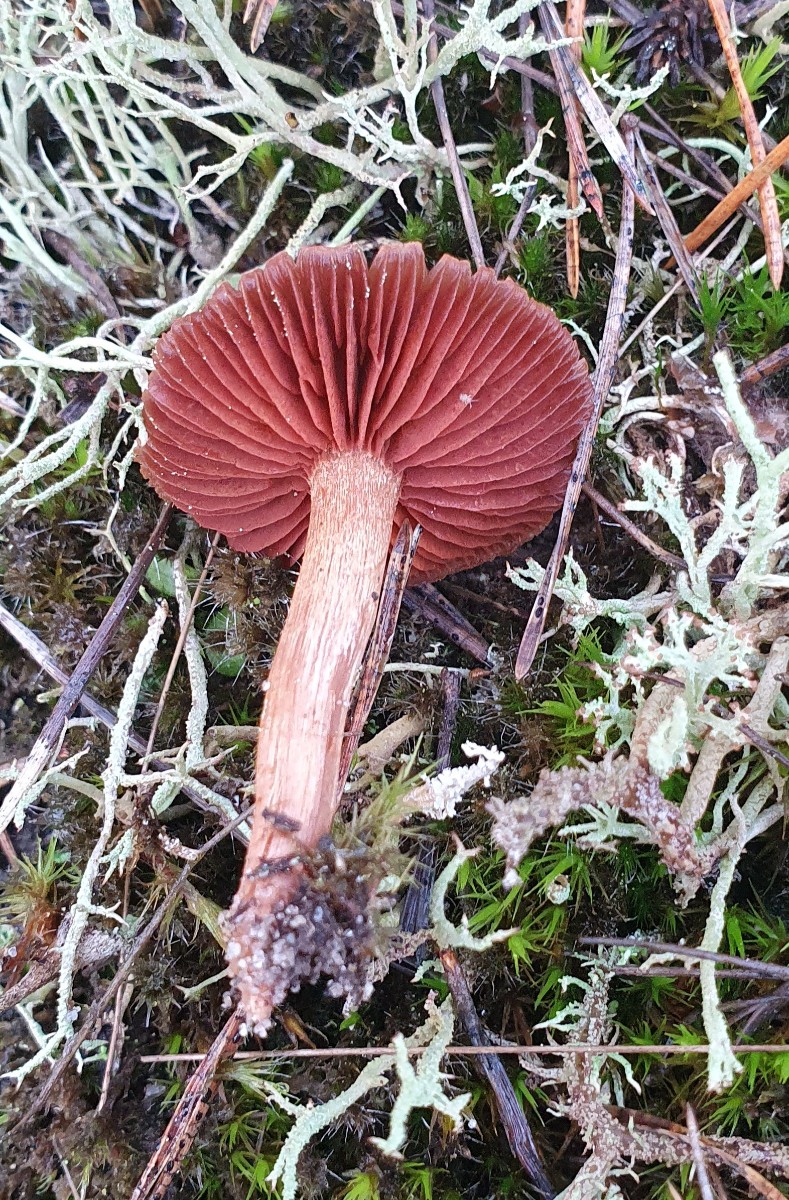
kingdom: Fungi
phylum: Basidiomycota
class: Agaricomycetes
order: Agaricales
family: Cortinariaceae
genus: Cortinarius
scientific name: Cortinarius
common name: cinnoberbladet slørhat
